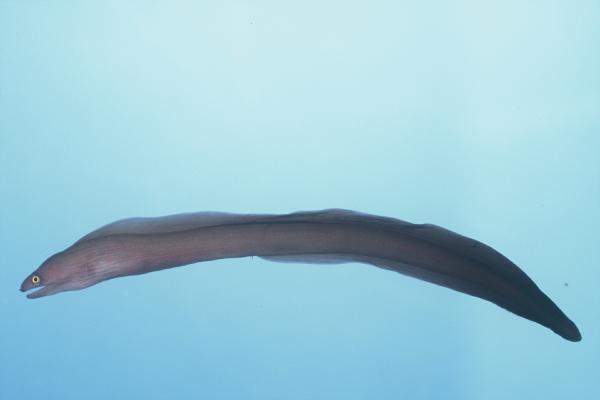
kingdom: Animalia
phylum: Chordata
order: Anguilliformes
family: Muraenidae
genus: Gymnothorax
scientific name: Gymnothorax monochrous
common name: Drab moray
